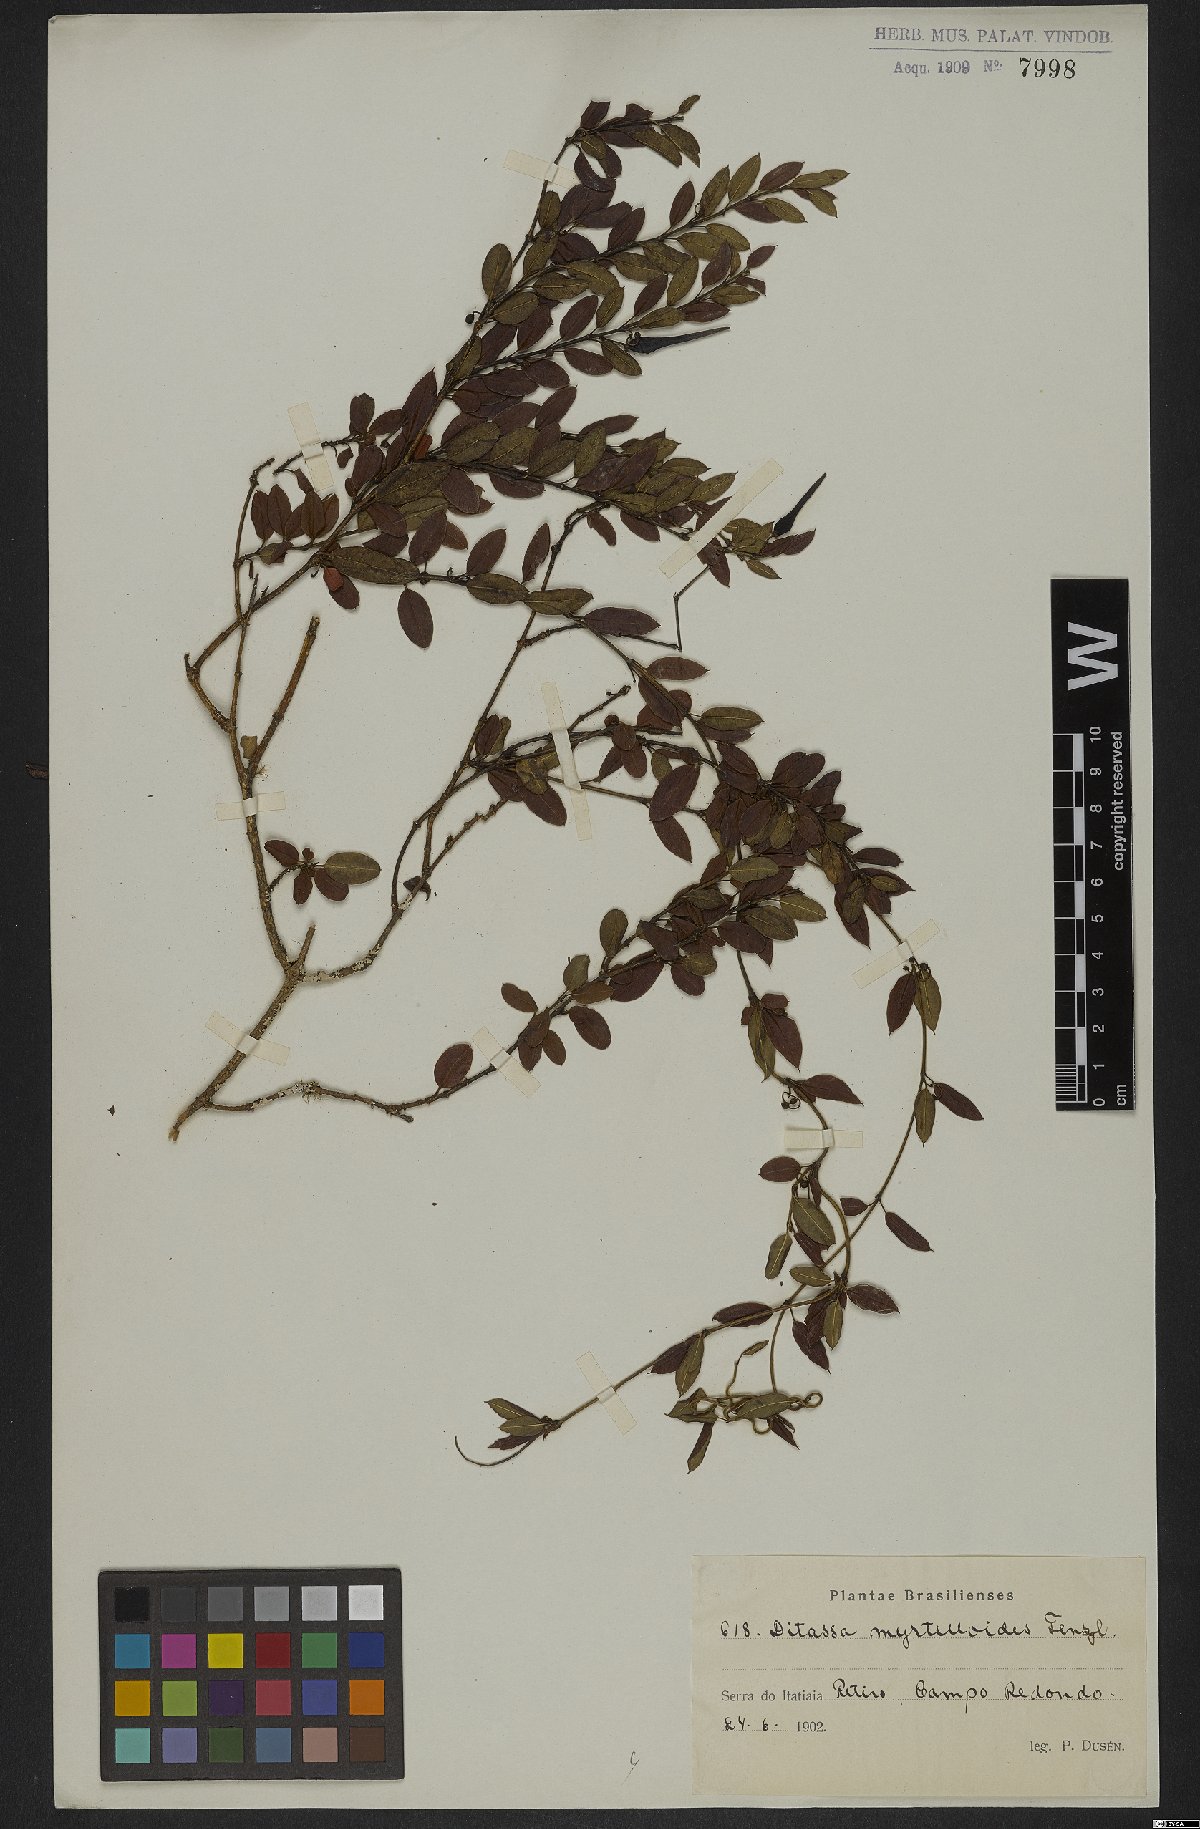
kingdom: Plantae
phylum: Tracheophyta
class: Magnoliopsida
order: Gentianales
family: Apocynaceae
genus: Ditassa
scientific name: Ditassa linearis
